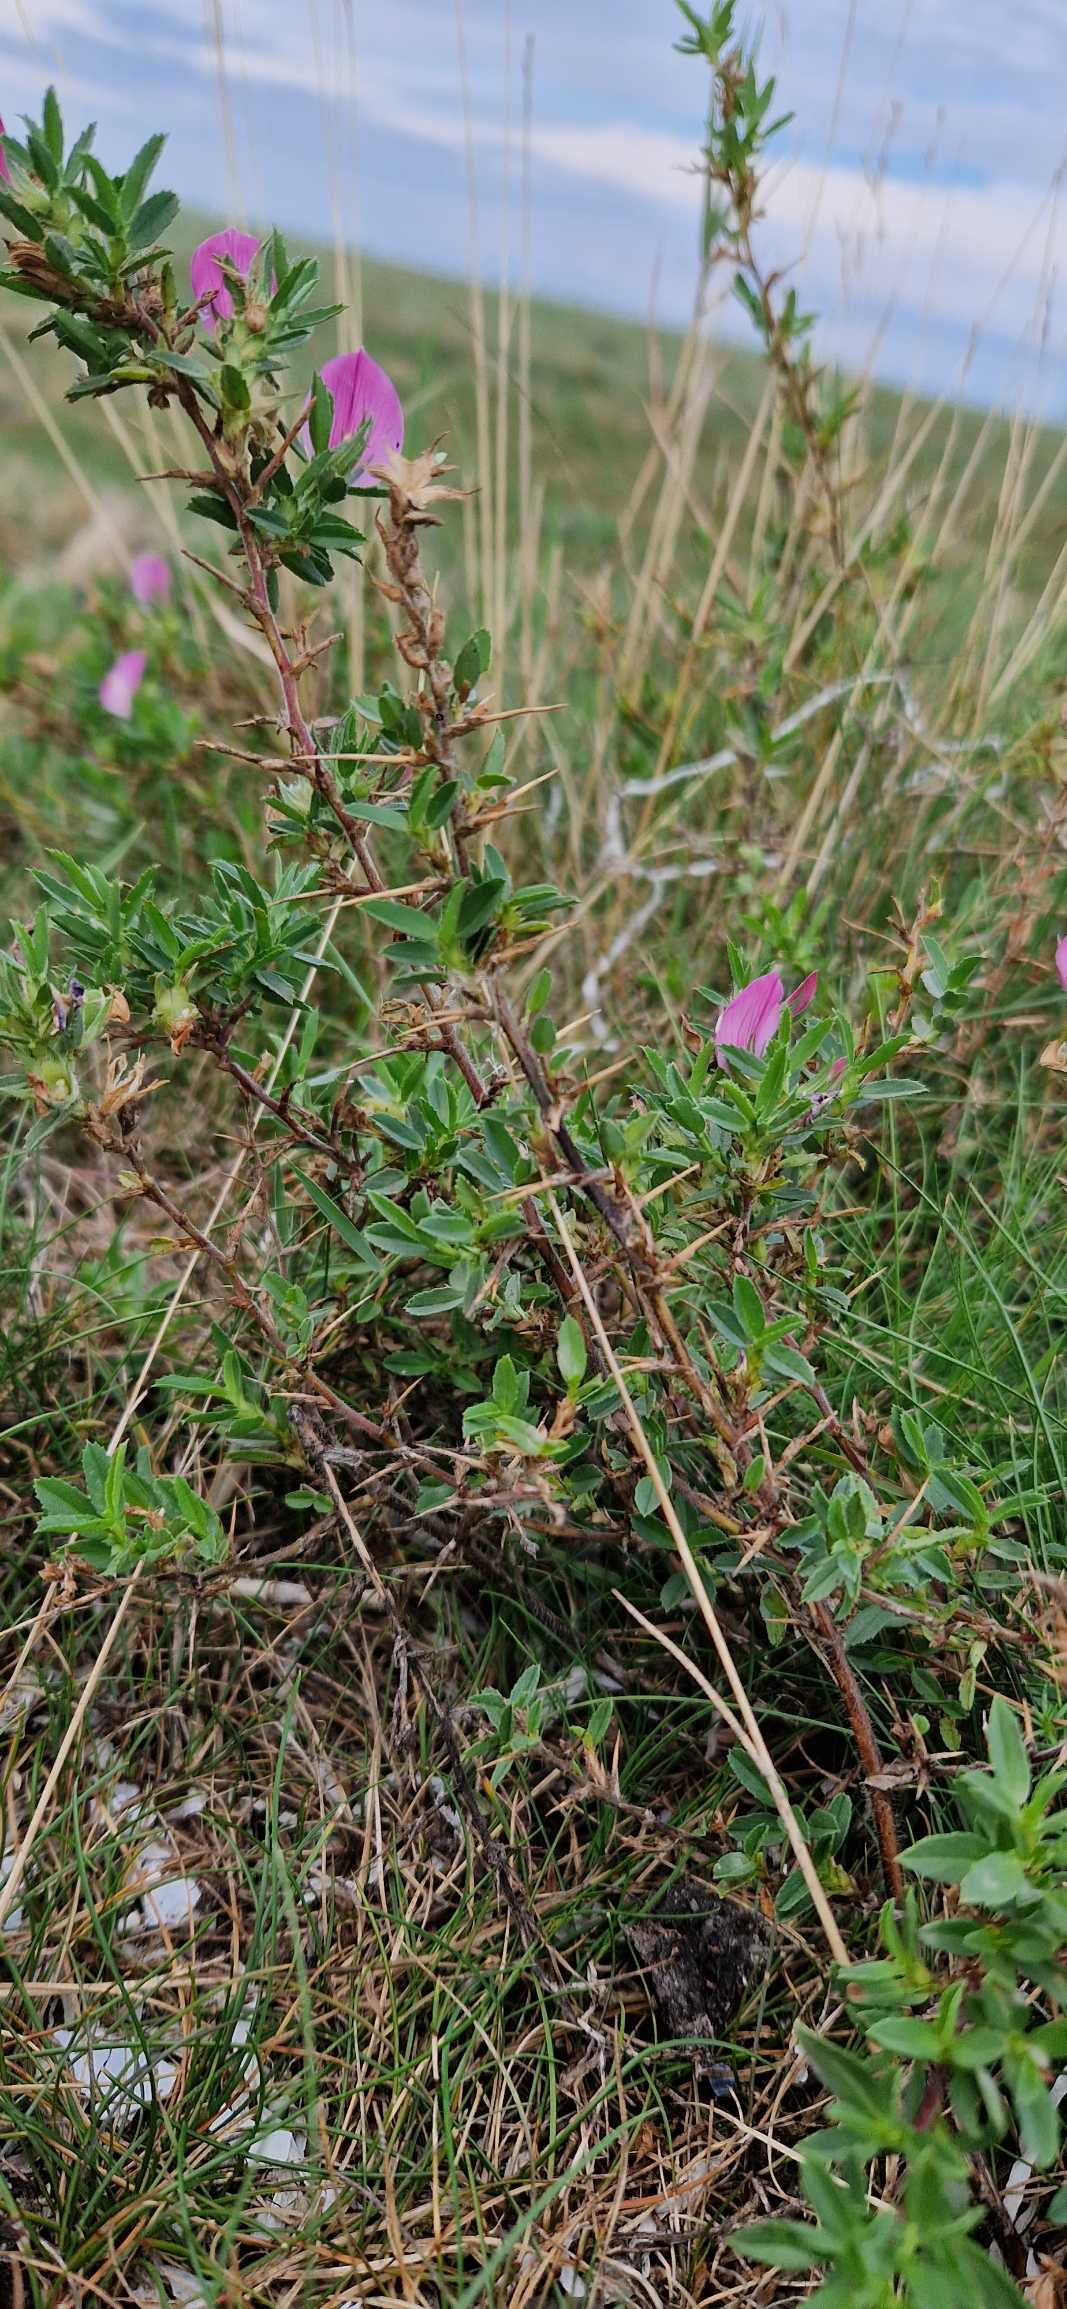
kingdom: Plantae
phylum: Tracheophyta
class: Magnoliopsida
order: Fabales
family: Fabaceae
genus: Ononis
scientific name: Ononis spinosa
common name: Strand-krageklo
